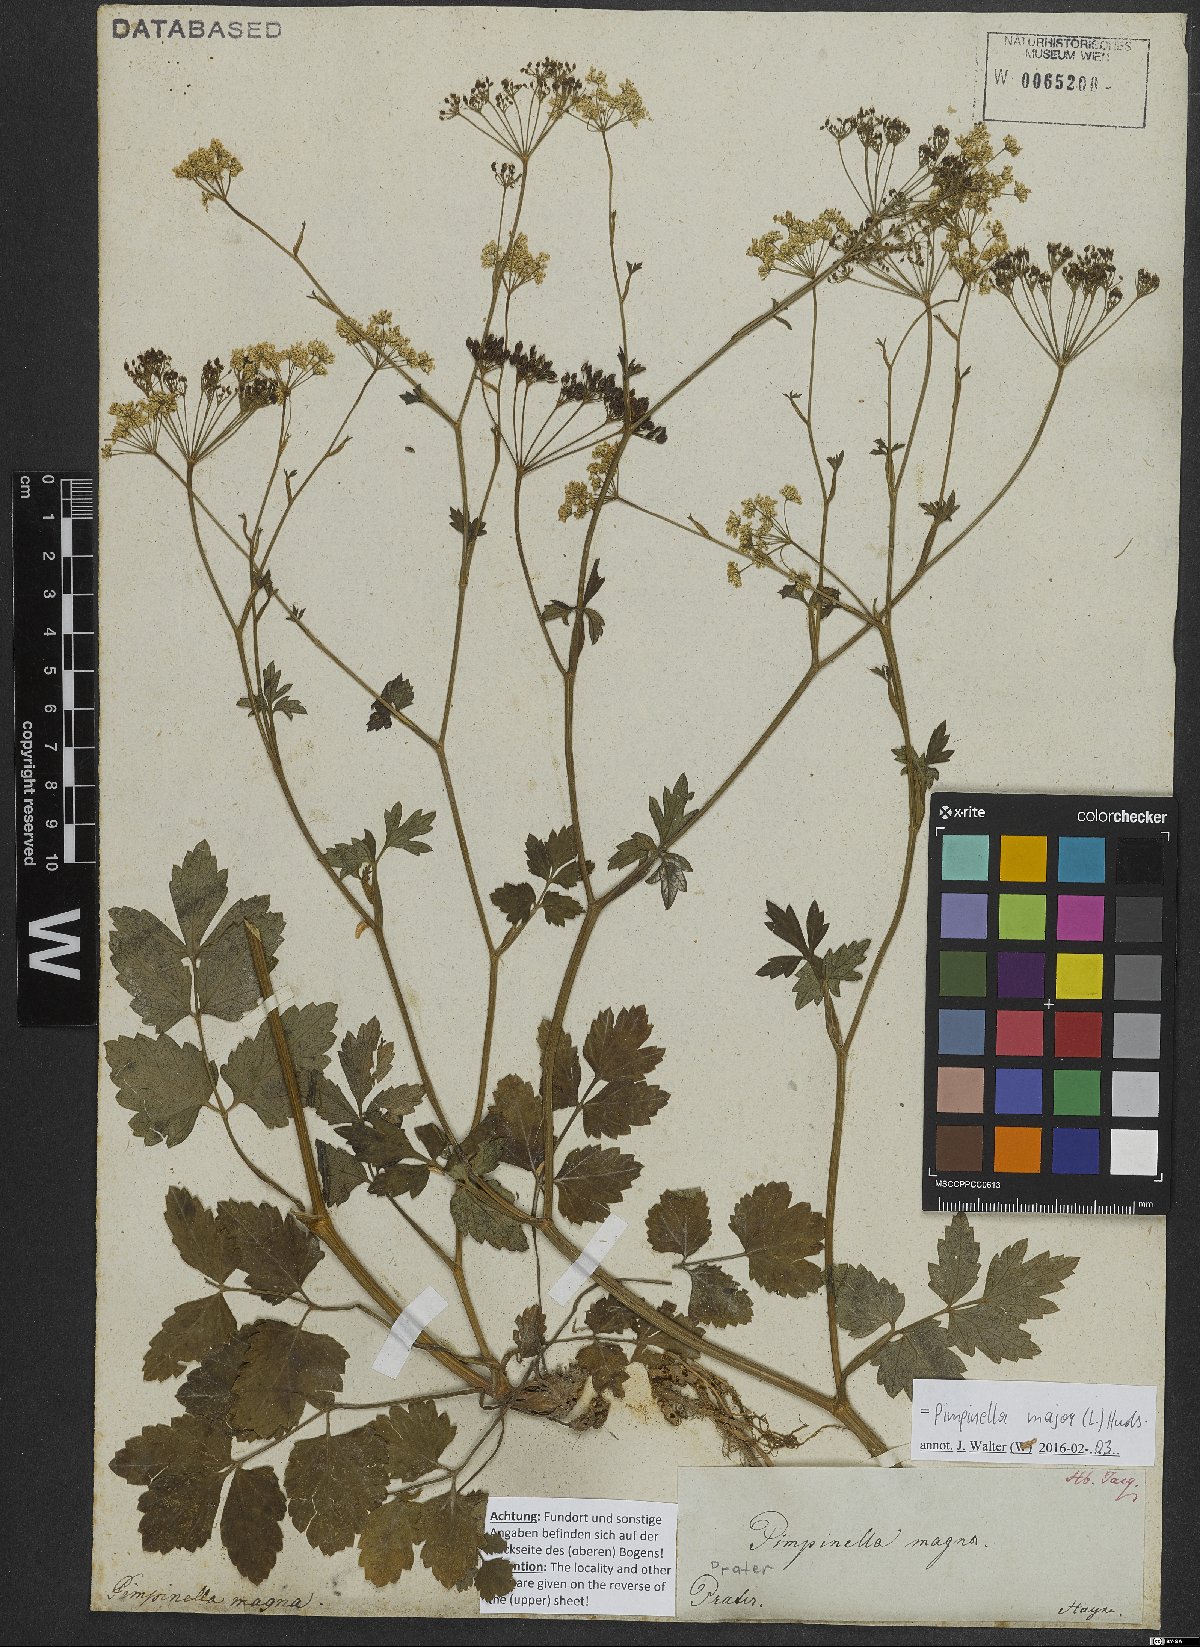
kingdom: Plantae
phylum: Tracheophyta
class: Magnoliopsida
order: Apiales
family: Apiaceae
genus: Pimpinella
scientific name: Pimpinella major
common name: Greater burnet-saxifrage
